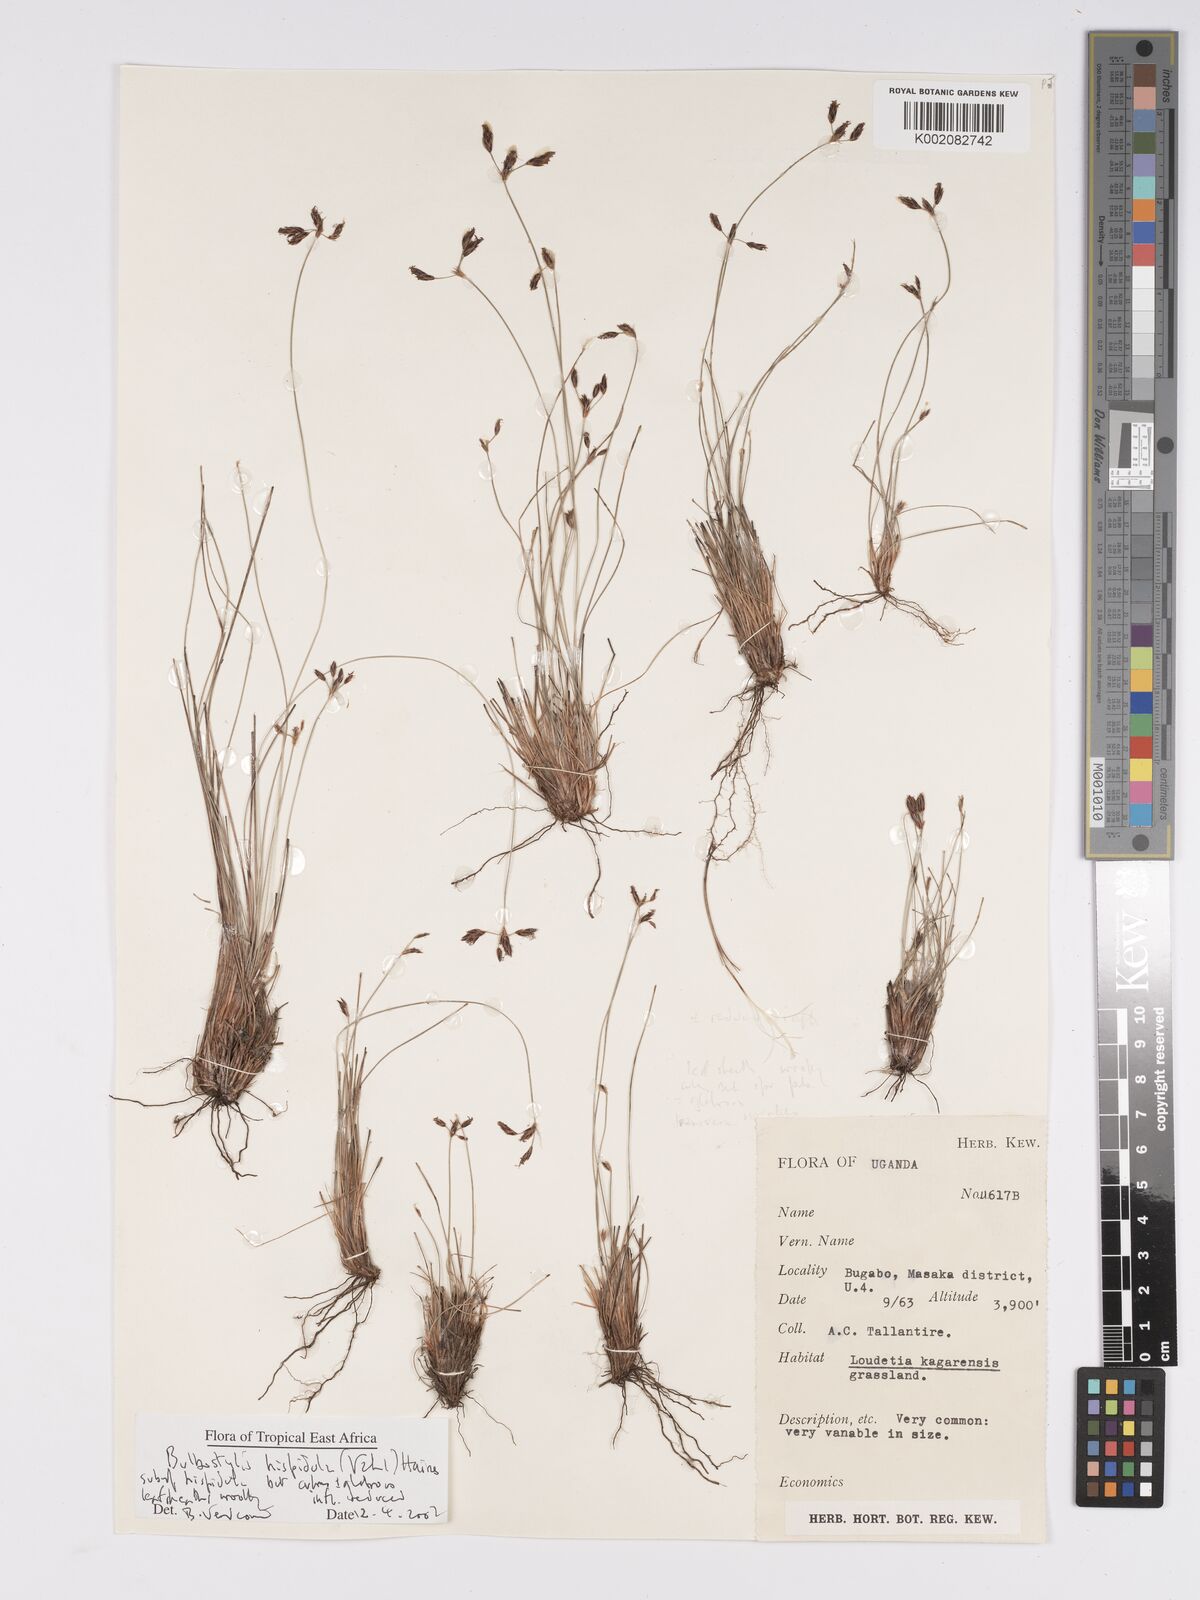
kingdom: Plantae
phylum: Tracheophyta
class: Liliopsida
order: Poales
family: Cyperaceae
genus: Bulbostylis
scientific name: Bulbostylis hispidula
